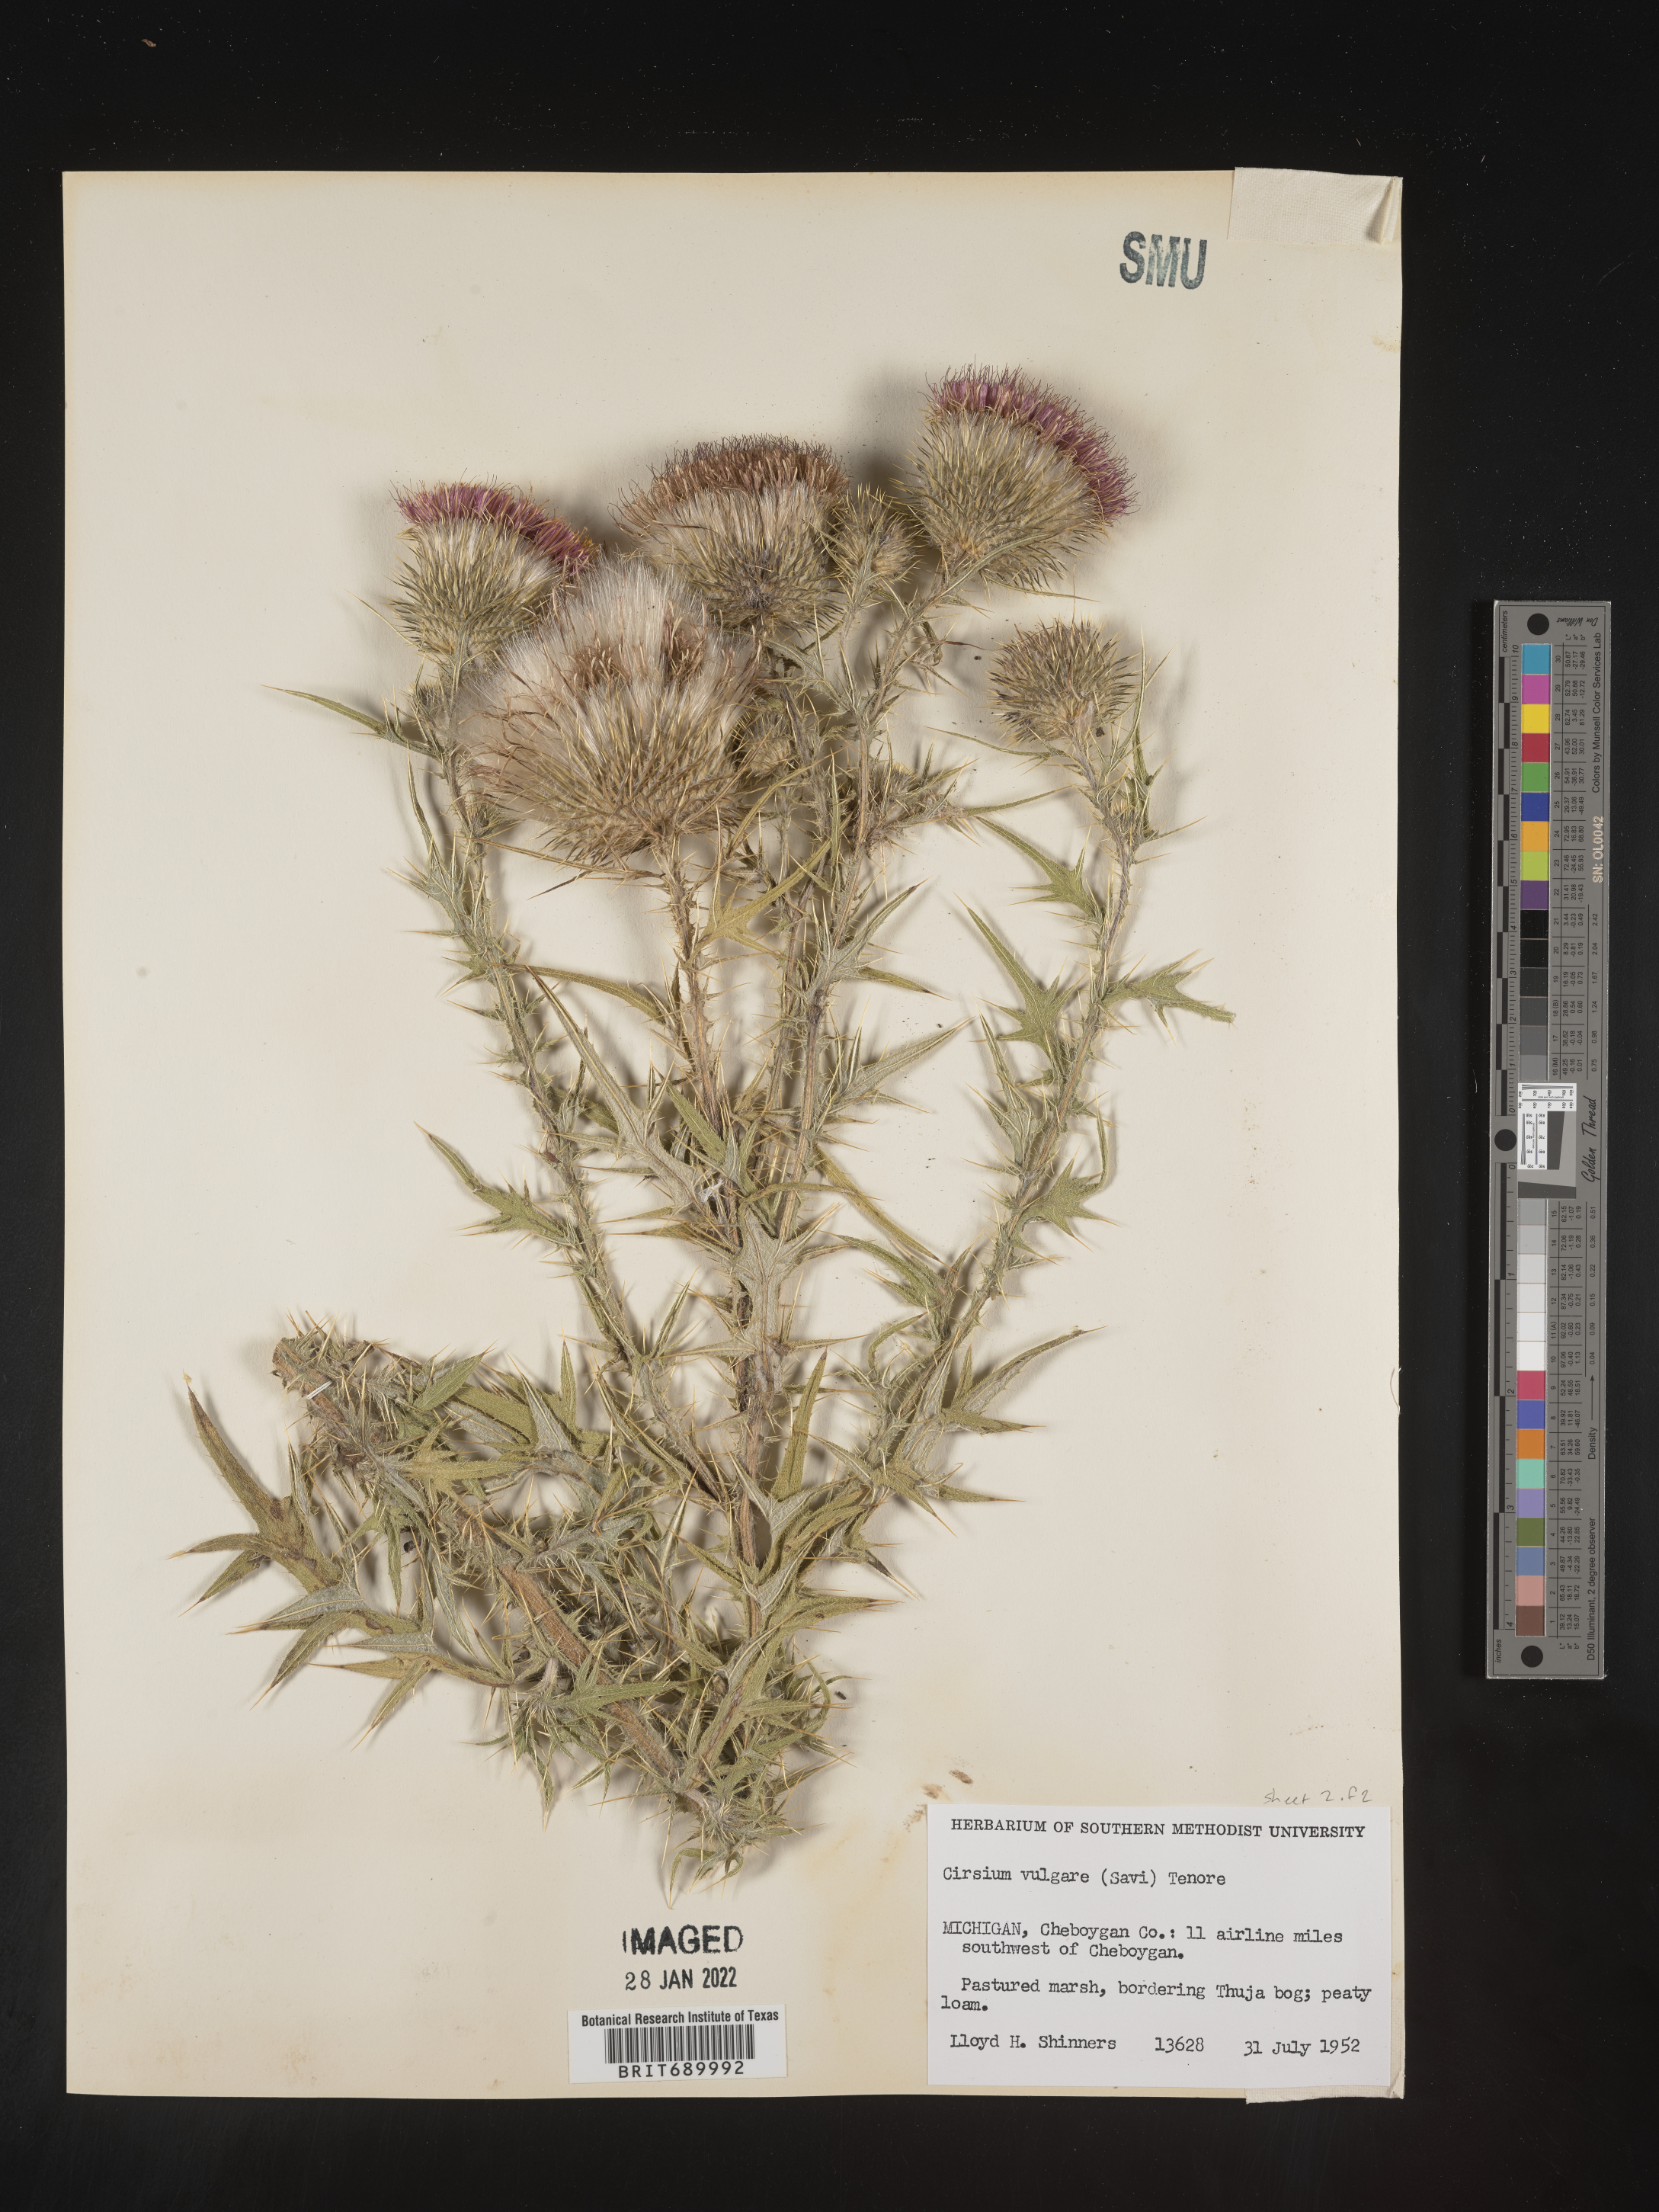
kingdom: Plantae
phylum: Tracheophyta
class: Magnoliopsida
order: Asterales
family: Asteraceae
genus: Cirsium
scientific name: Cirsium vulgare
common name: Bull thistle
